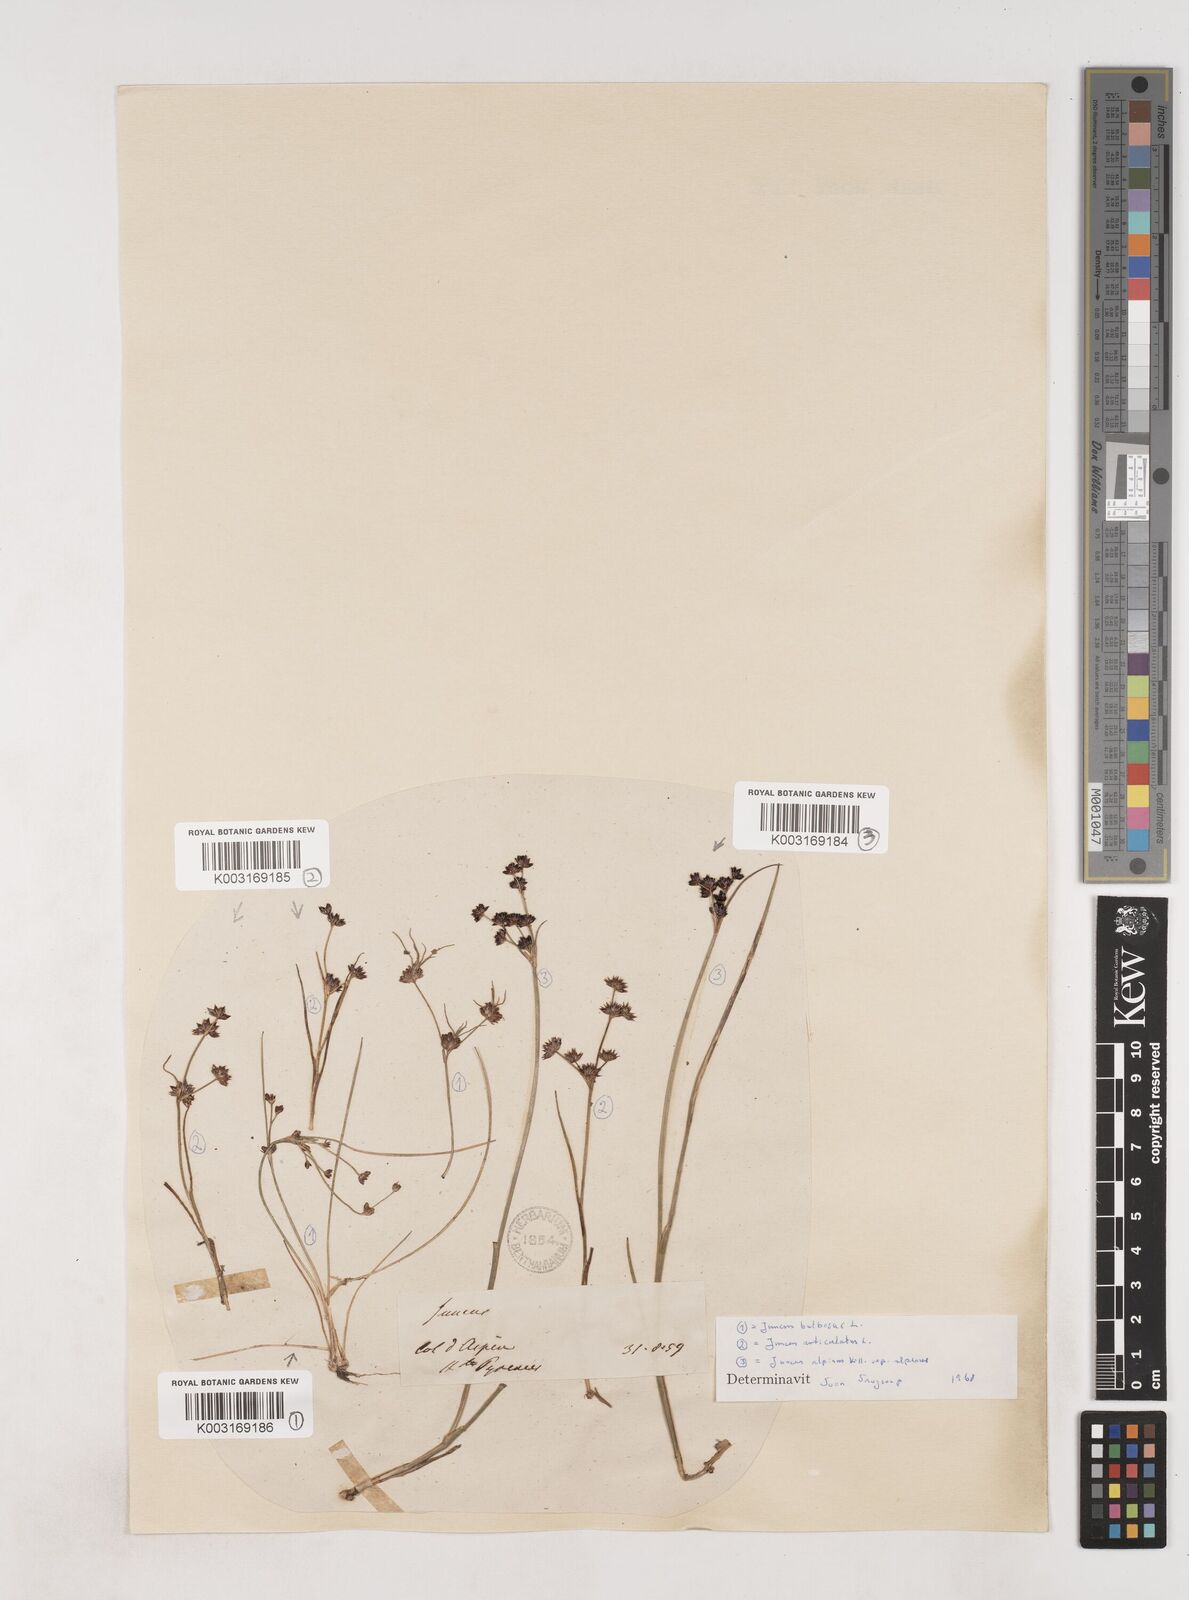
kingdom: Plantae
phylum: Tracheophyta
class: Liliopsida
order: Poales
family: Juncaceae
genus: Juncus
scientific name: Juncus bulbosus
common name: Bulbous rush
